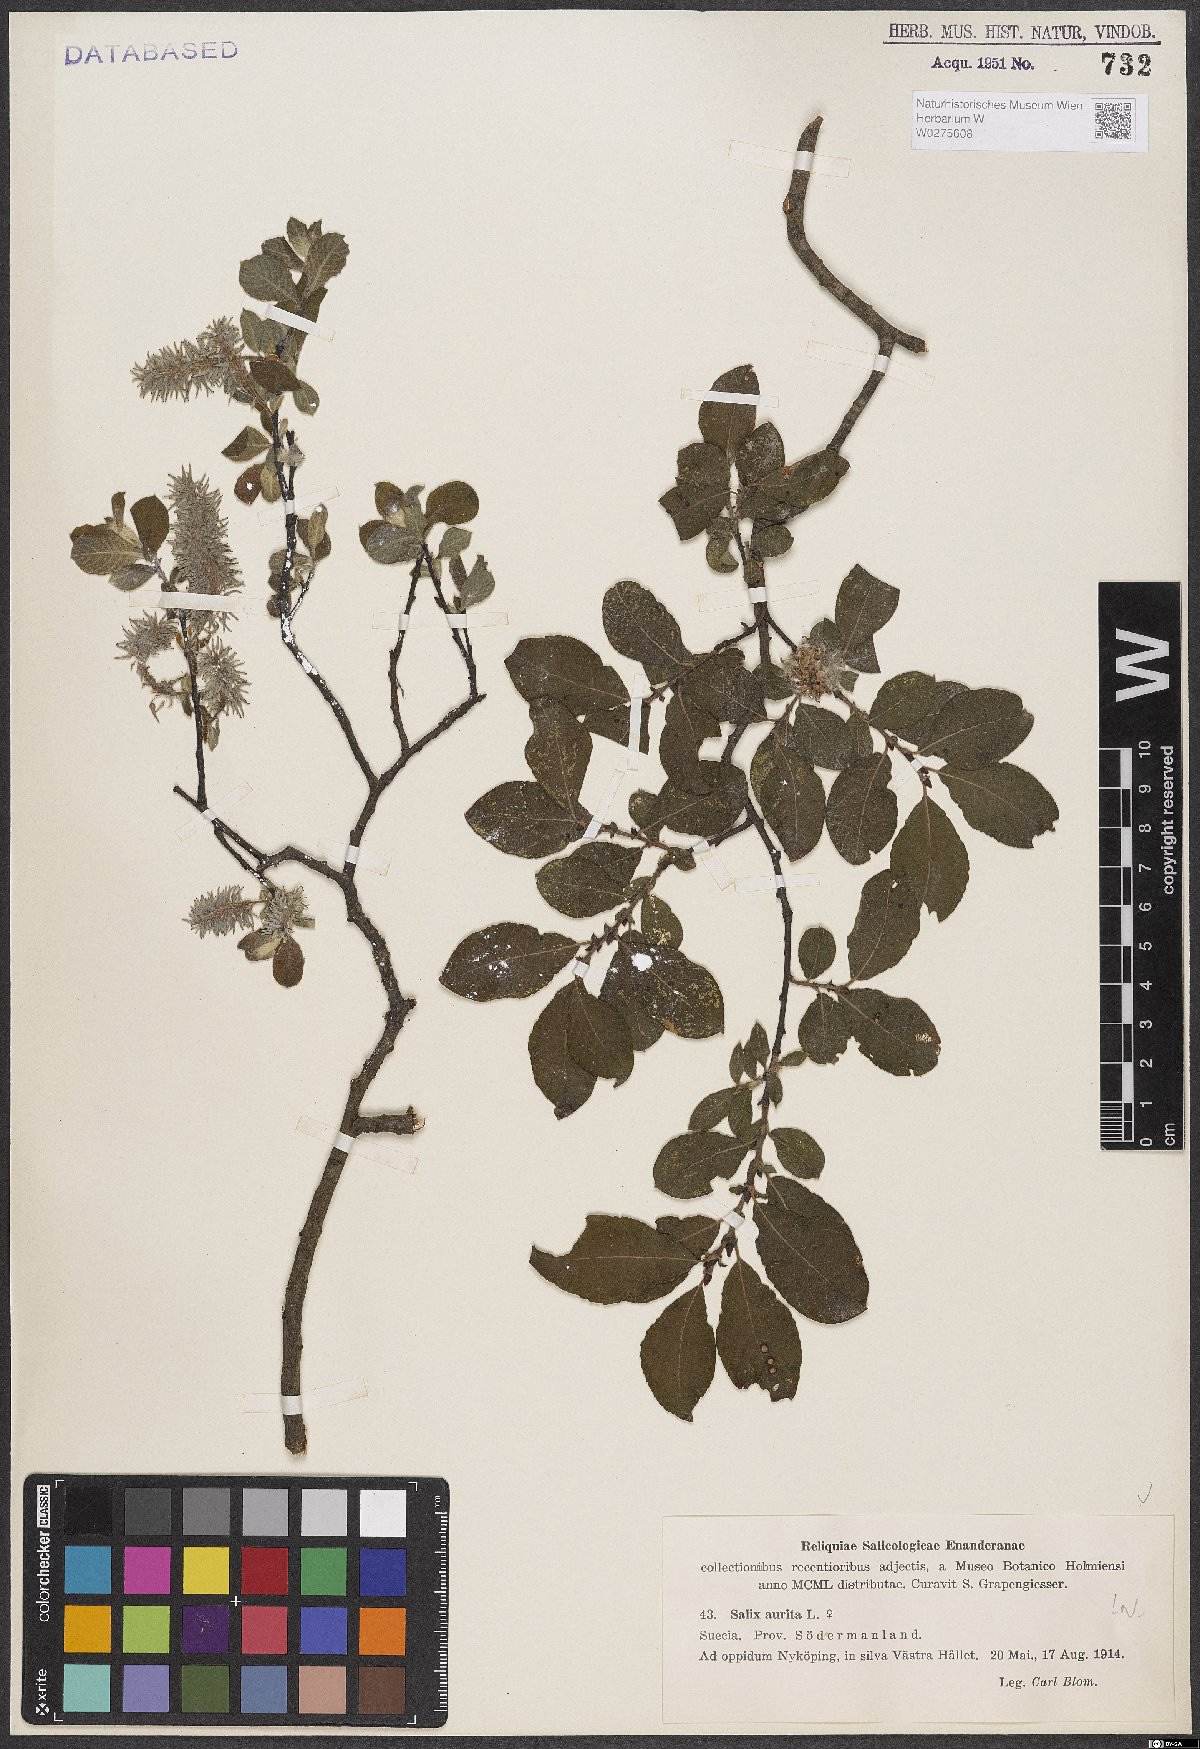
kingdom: Plantae
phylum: Tracheophyta
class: Magnoliopsida
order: Malpighiales
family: Salicaceae
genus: Salix
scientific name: Salix aurita
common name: Eared willow
